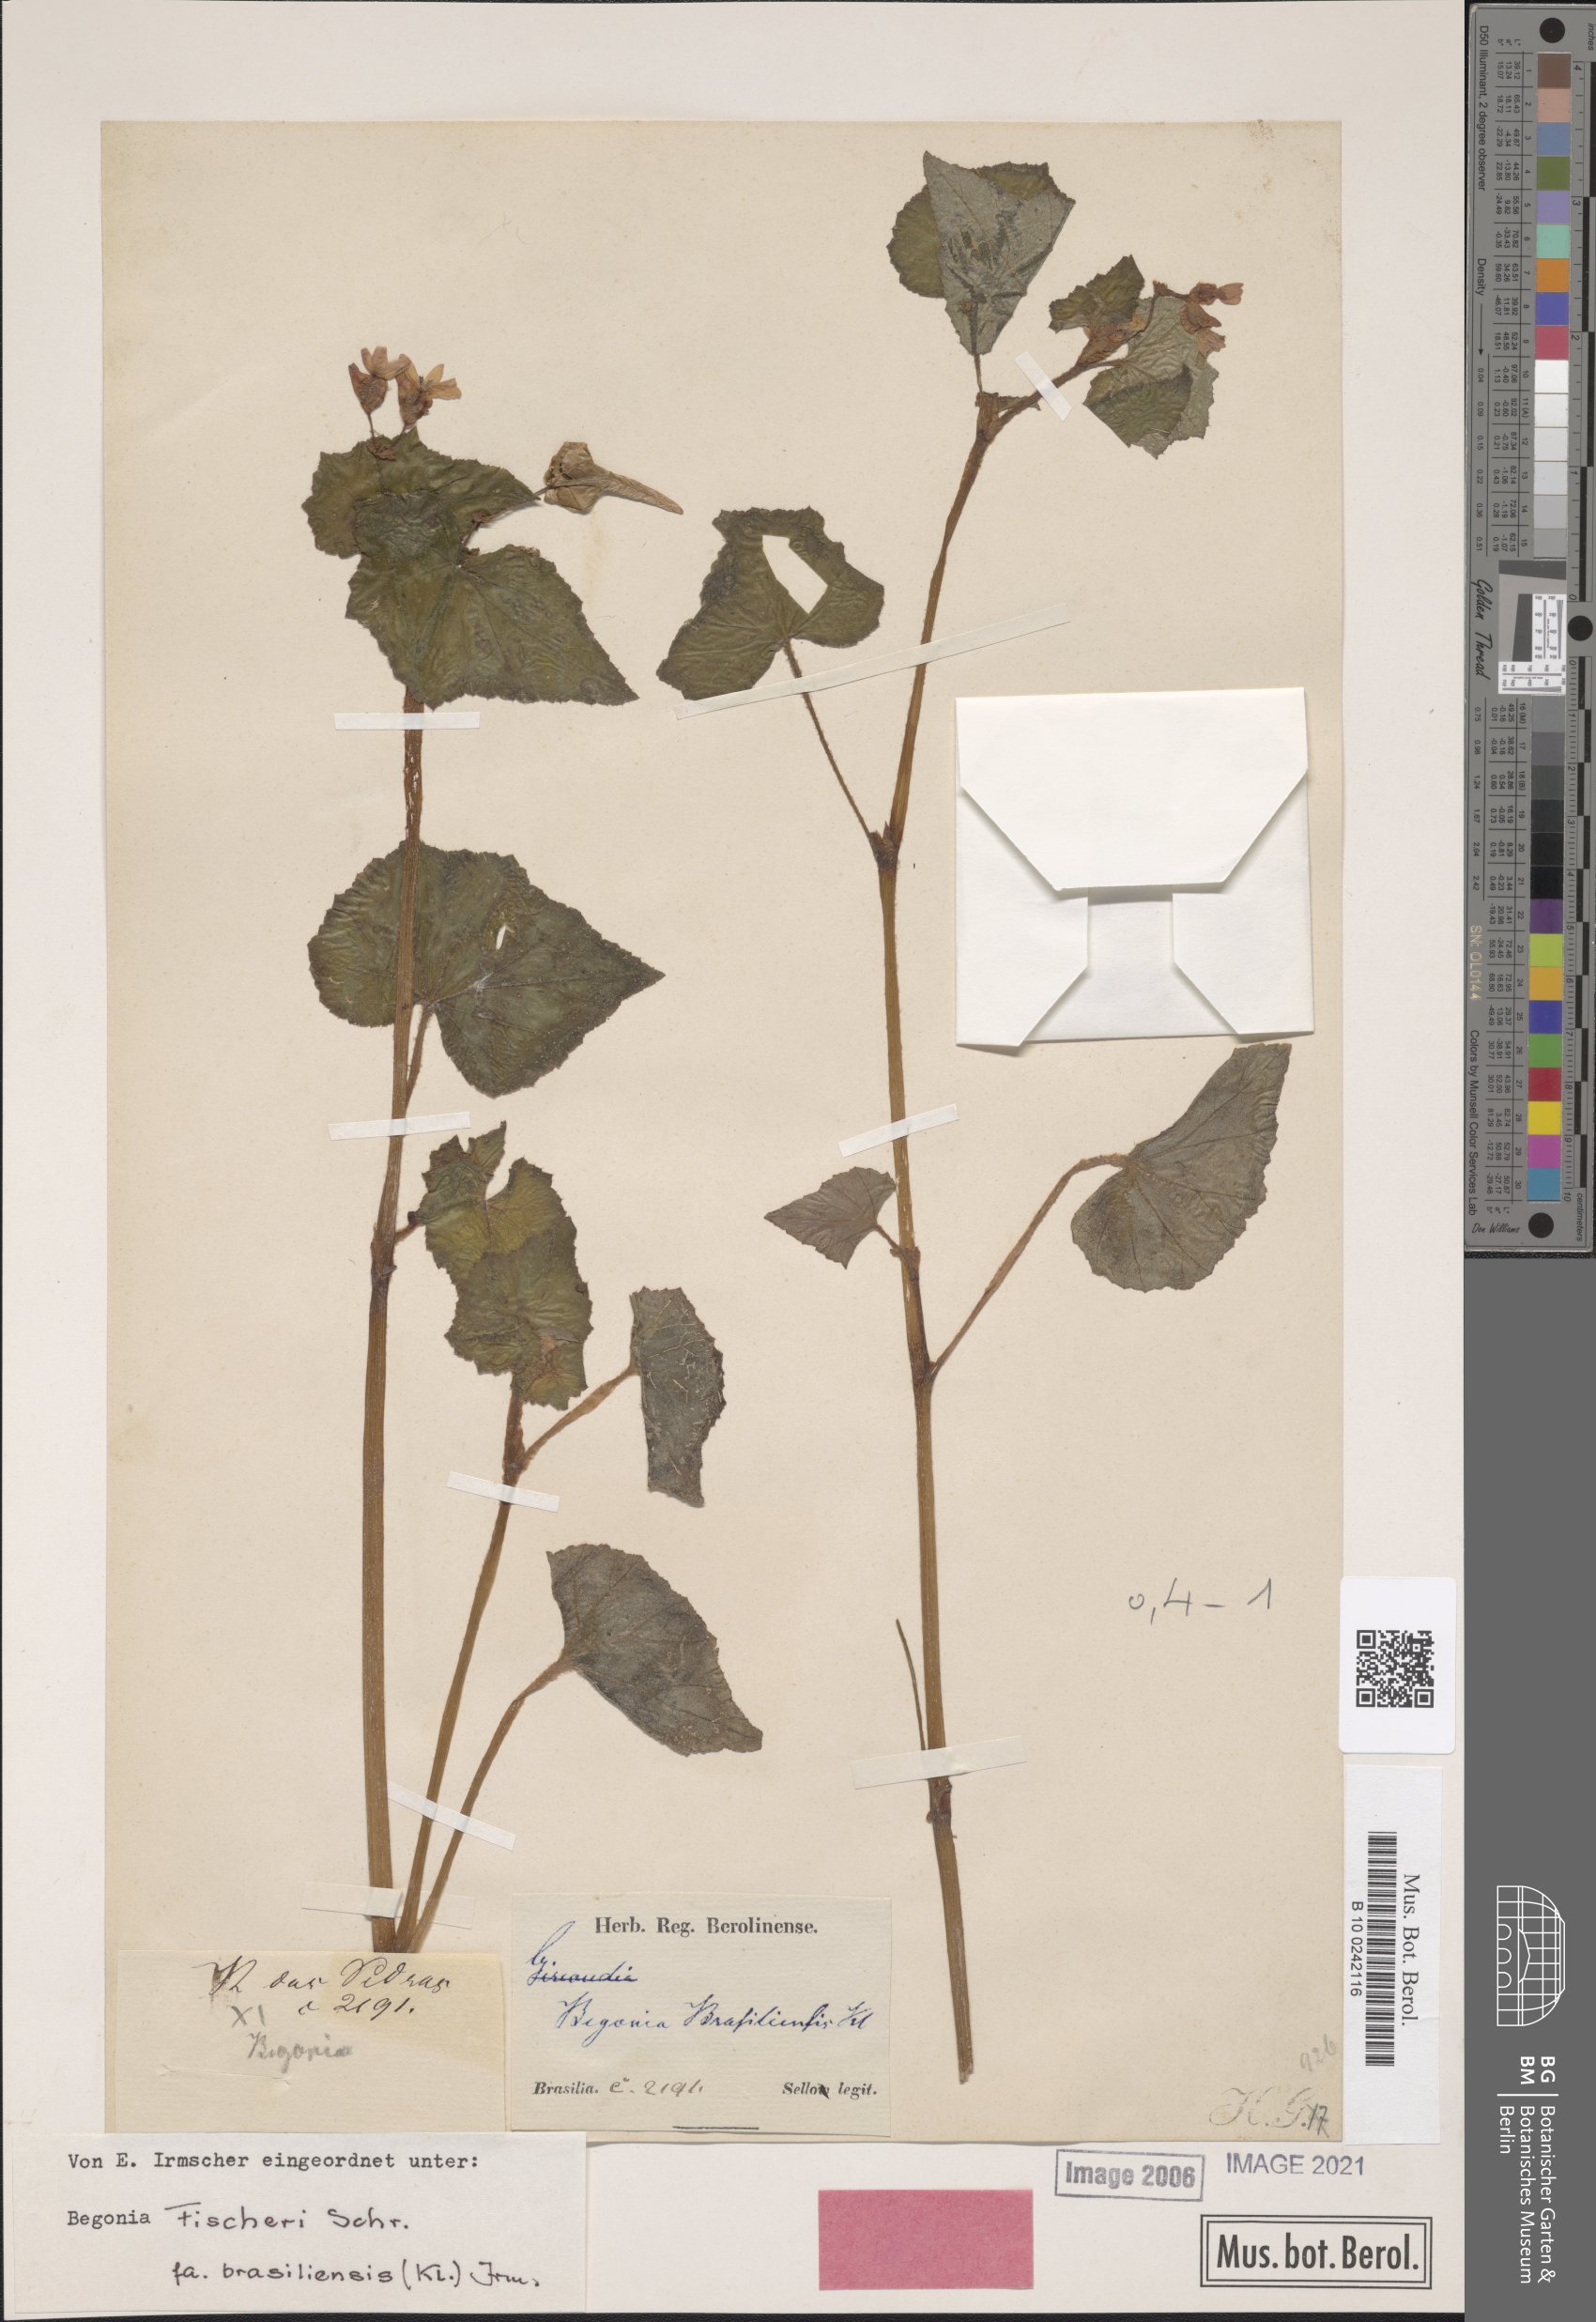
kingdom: Plantae
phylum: Tracheophyta
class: Magnoliopsida
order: Cucurbitales
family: Begoniaceae
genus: Begonia
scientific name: Begonia fischeri
